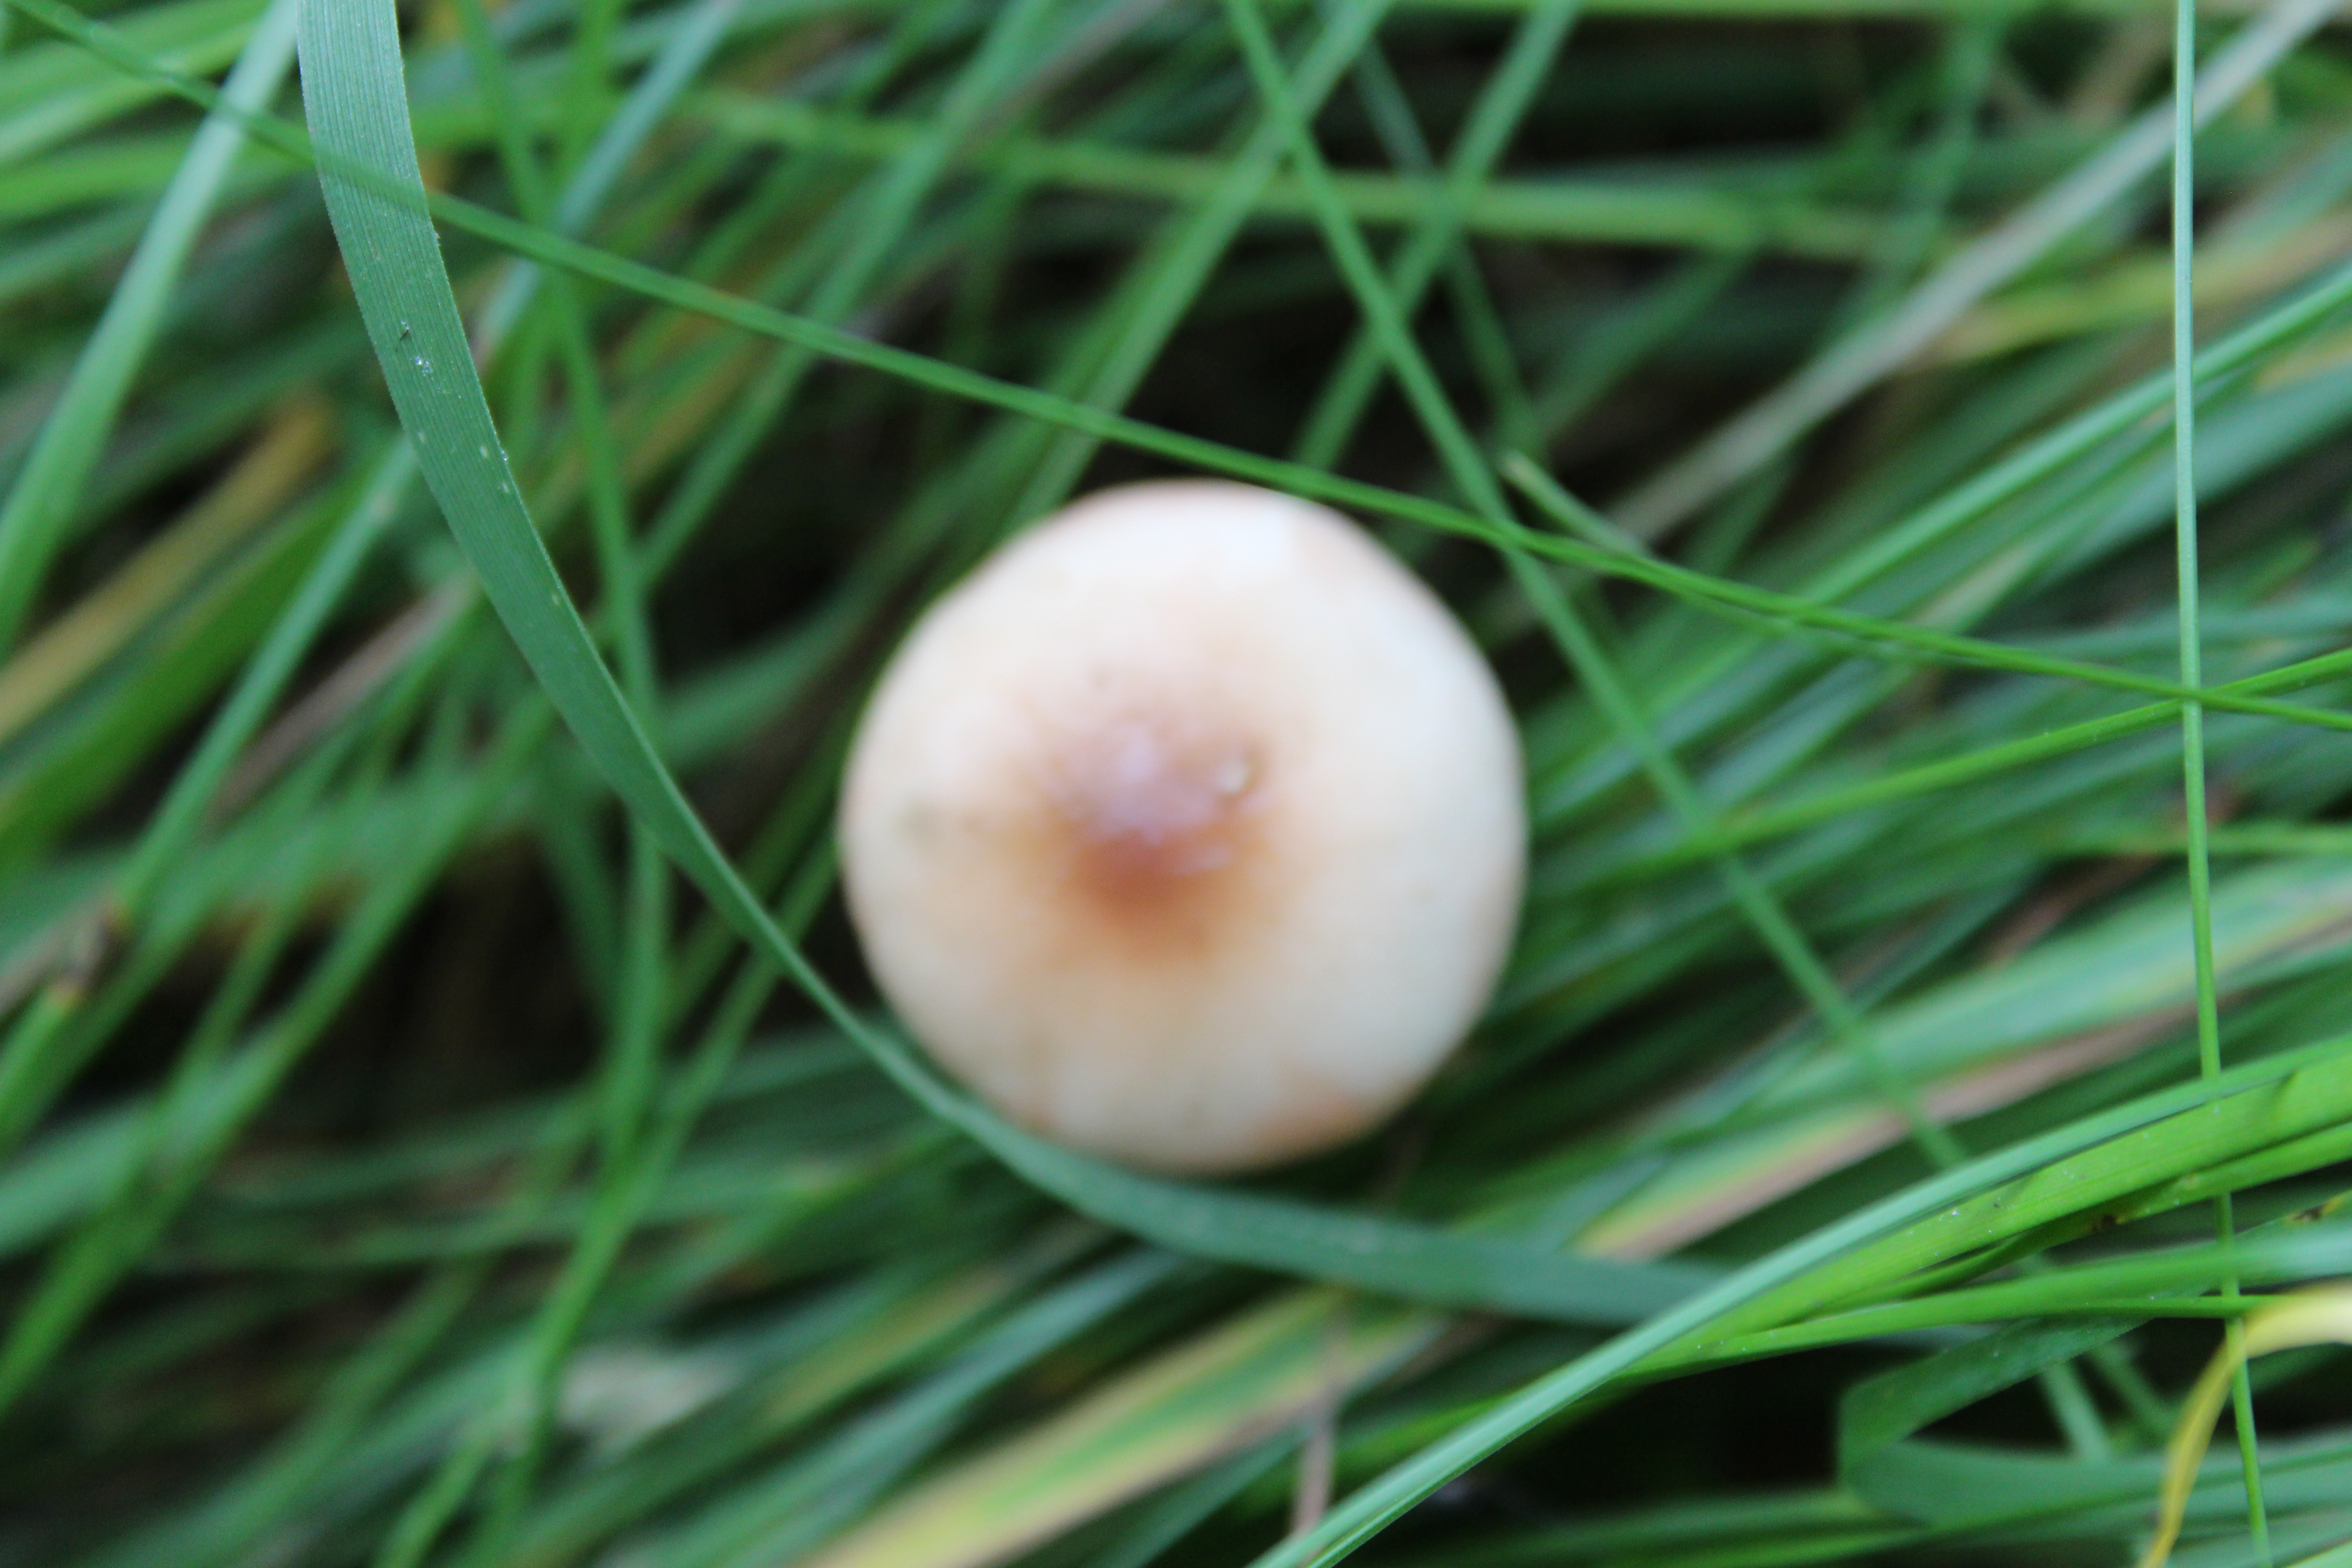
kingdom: Fungi
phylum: Basidiomycota
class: Agaricomycetes
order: Boletales
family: Gomphidiaceae
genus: Gomphidius
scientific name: Gomphidius maculatus
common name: Larch spike
